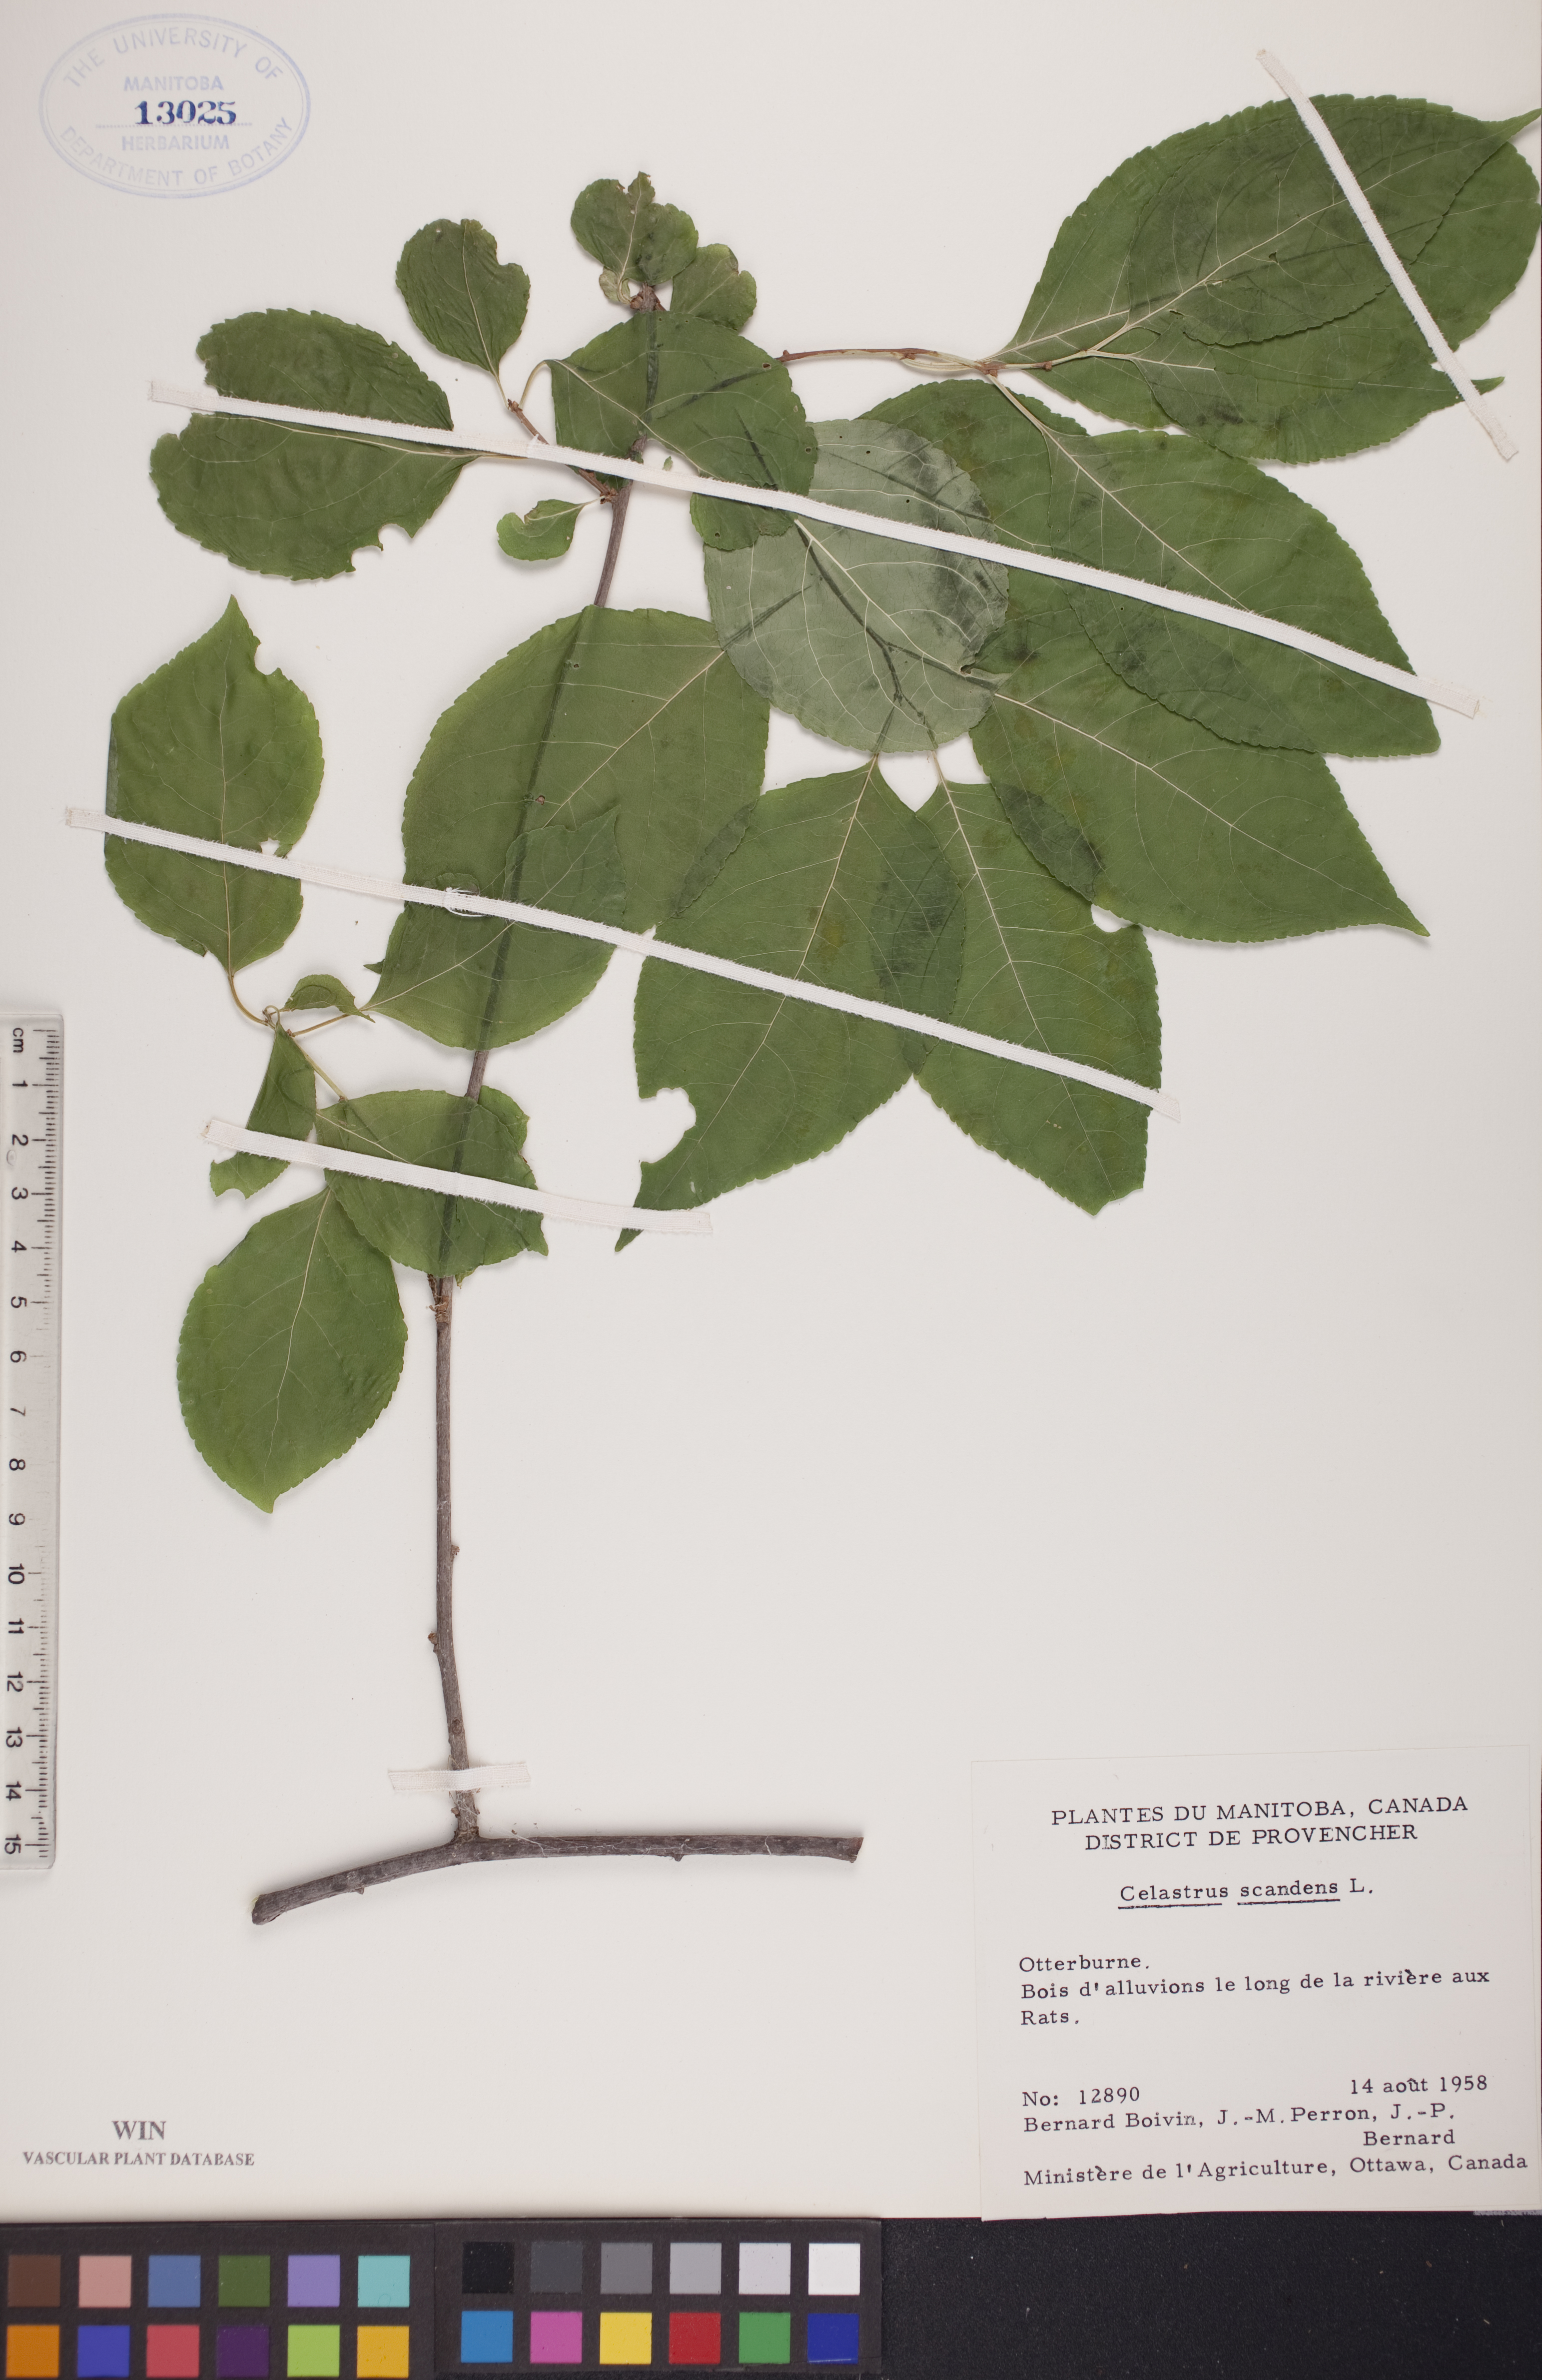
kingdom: Plantae
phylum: Tracheophyta
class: Magnoliopsida
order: Celastrales
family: Celastraceae
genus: Celastrus
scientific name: Celastrus scandens
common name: American bittersweet
